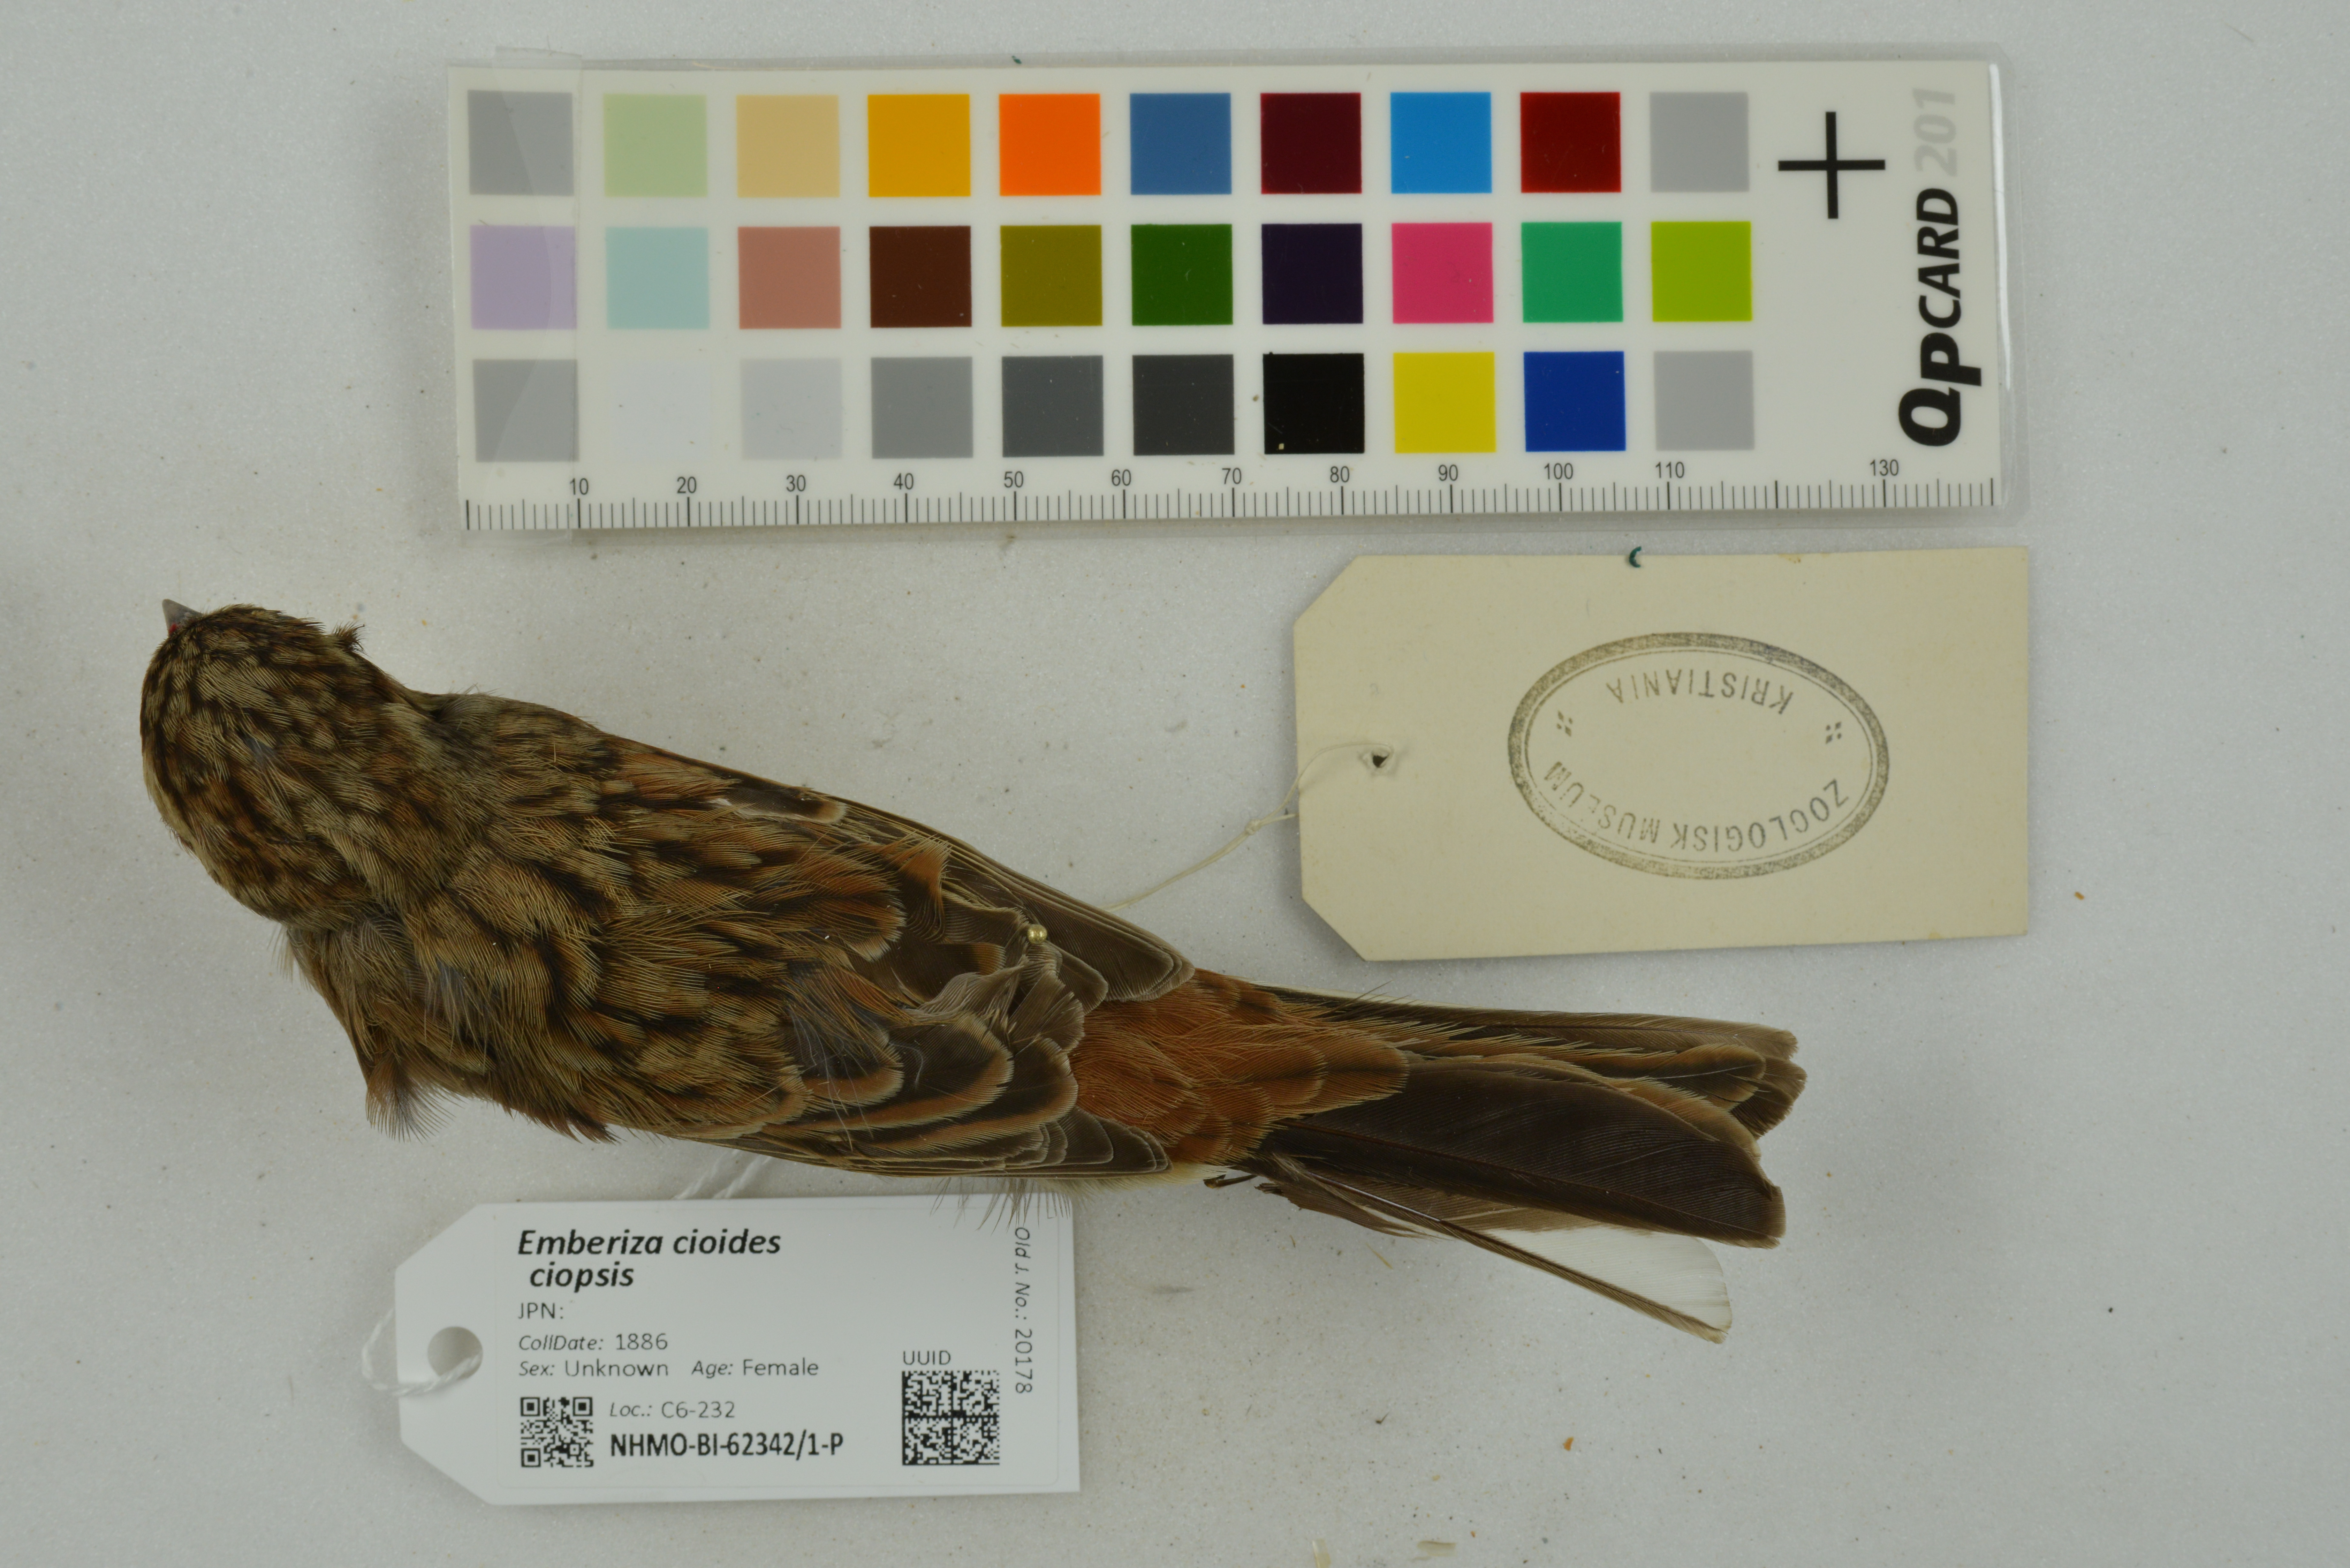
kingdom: Animalia
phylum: Chordata
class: Aves
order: Passeriformes
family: Emberizidae
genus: Emberiza
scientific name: Emberiza cioides
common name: Meadow bunting
